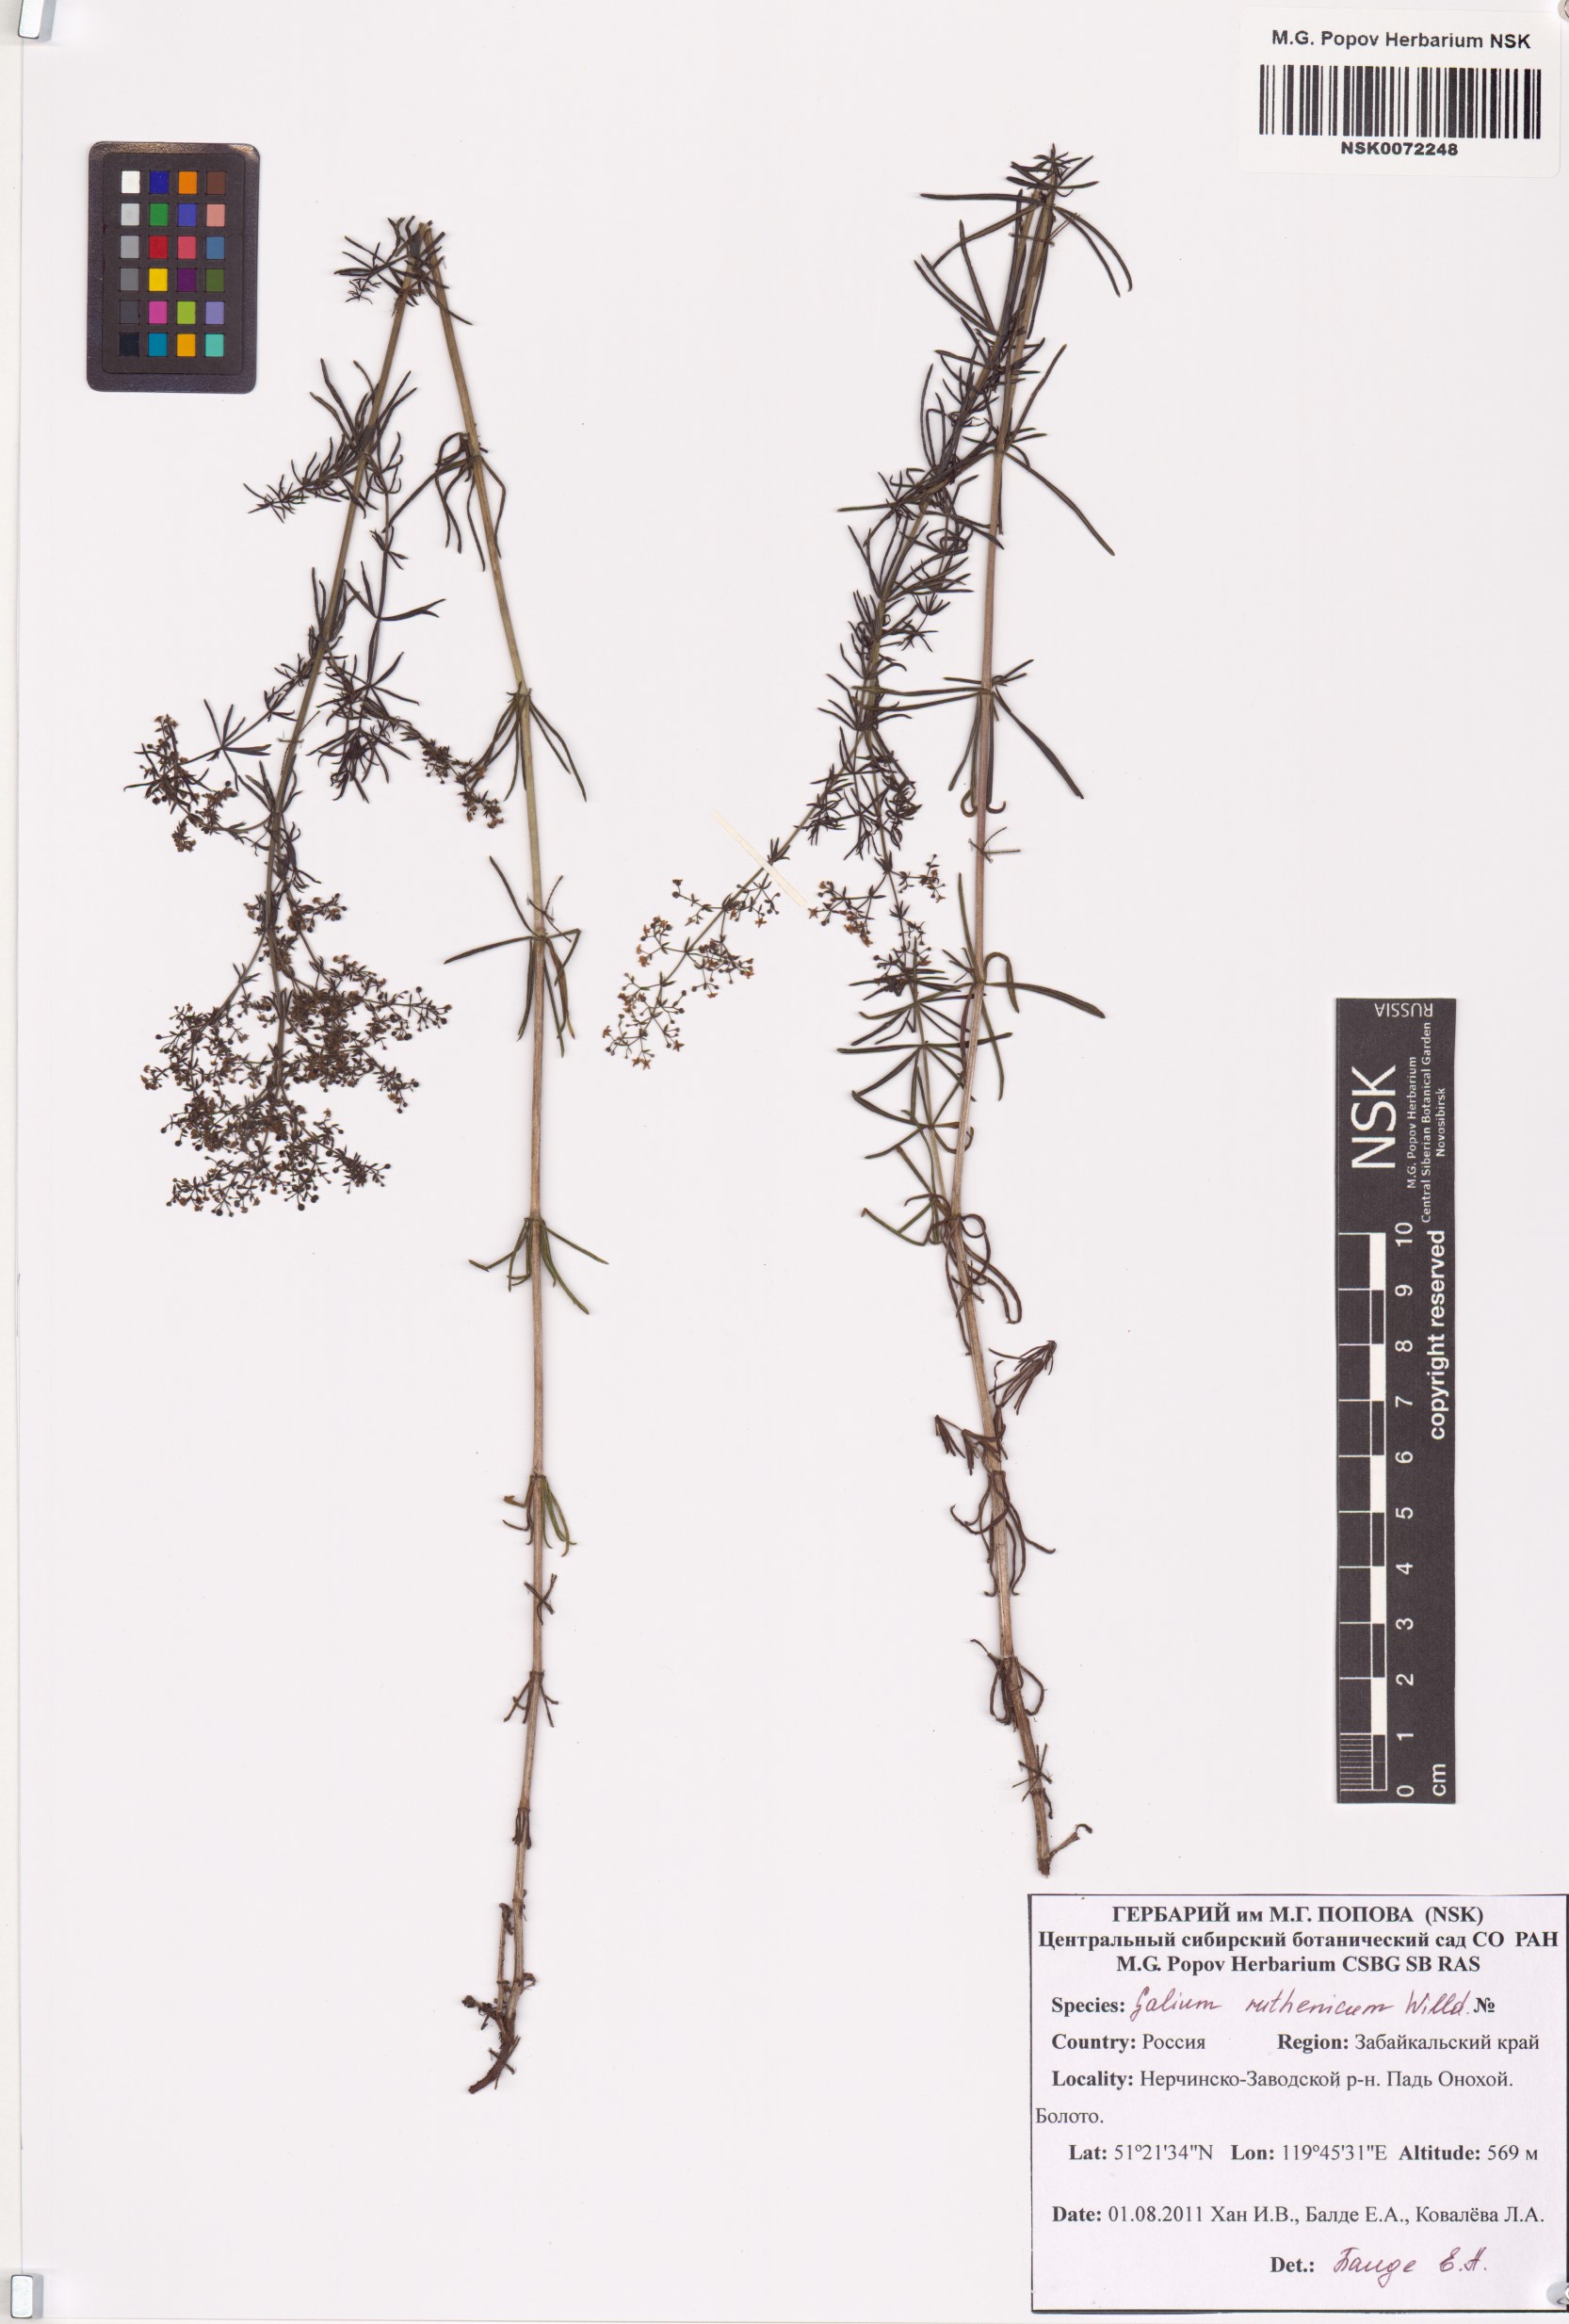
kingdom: Plantae
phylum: Tracheophyta
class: Magnoliopsida
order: Gentianales
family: Rubiaceae
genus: Galium
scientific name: Galium verum
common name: Lady's bedstraw
